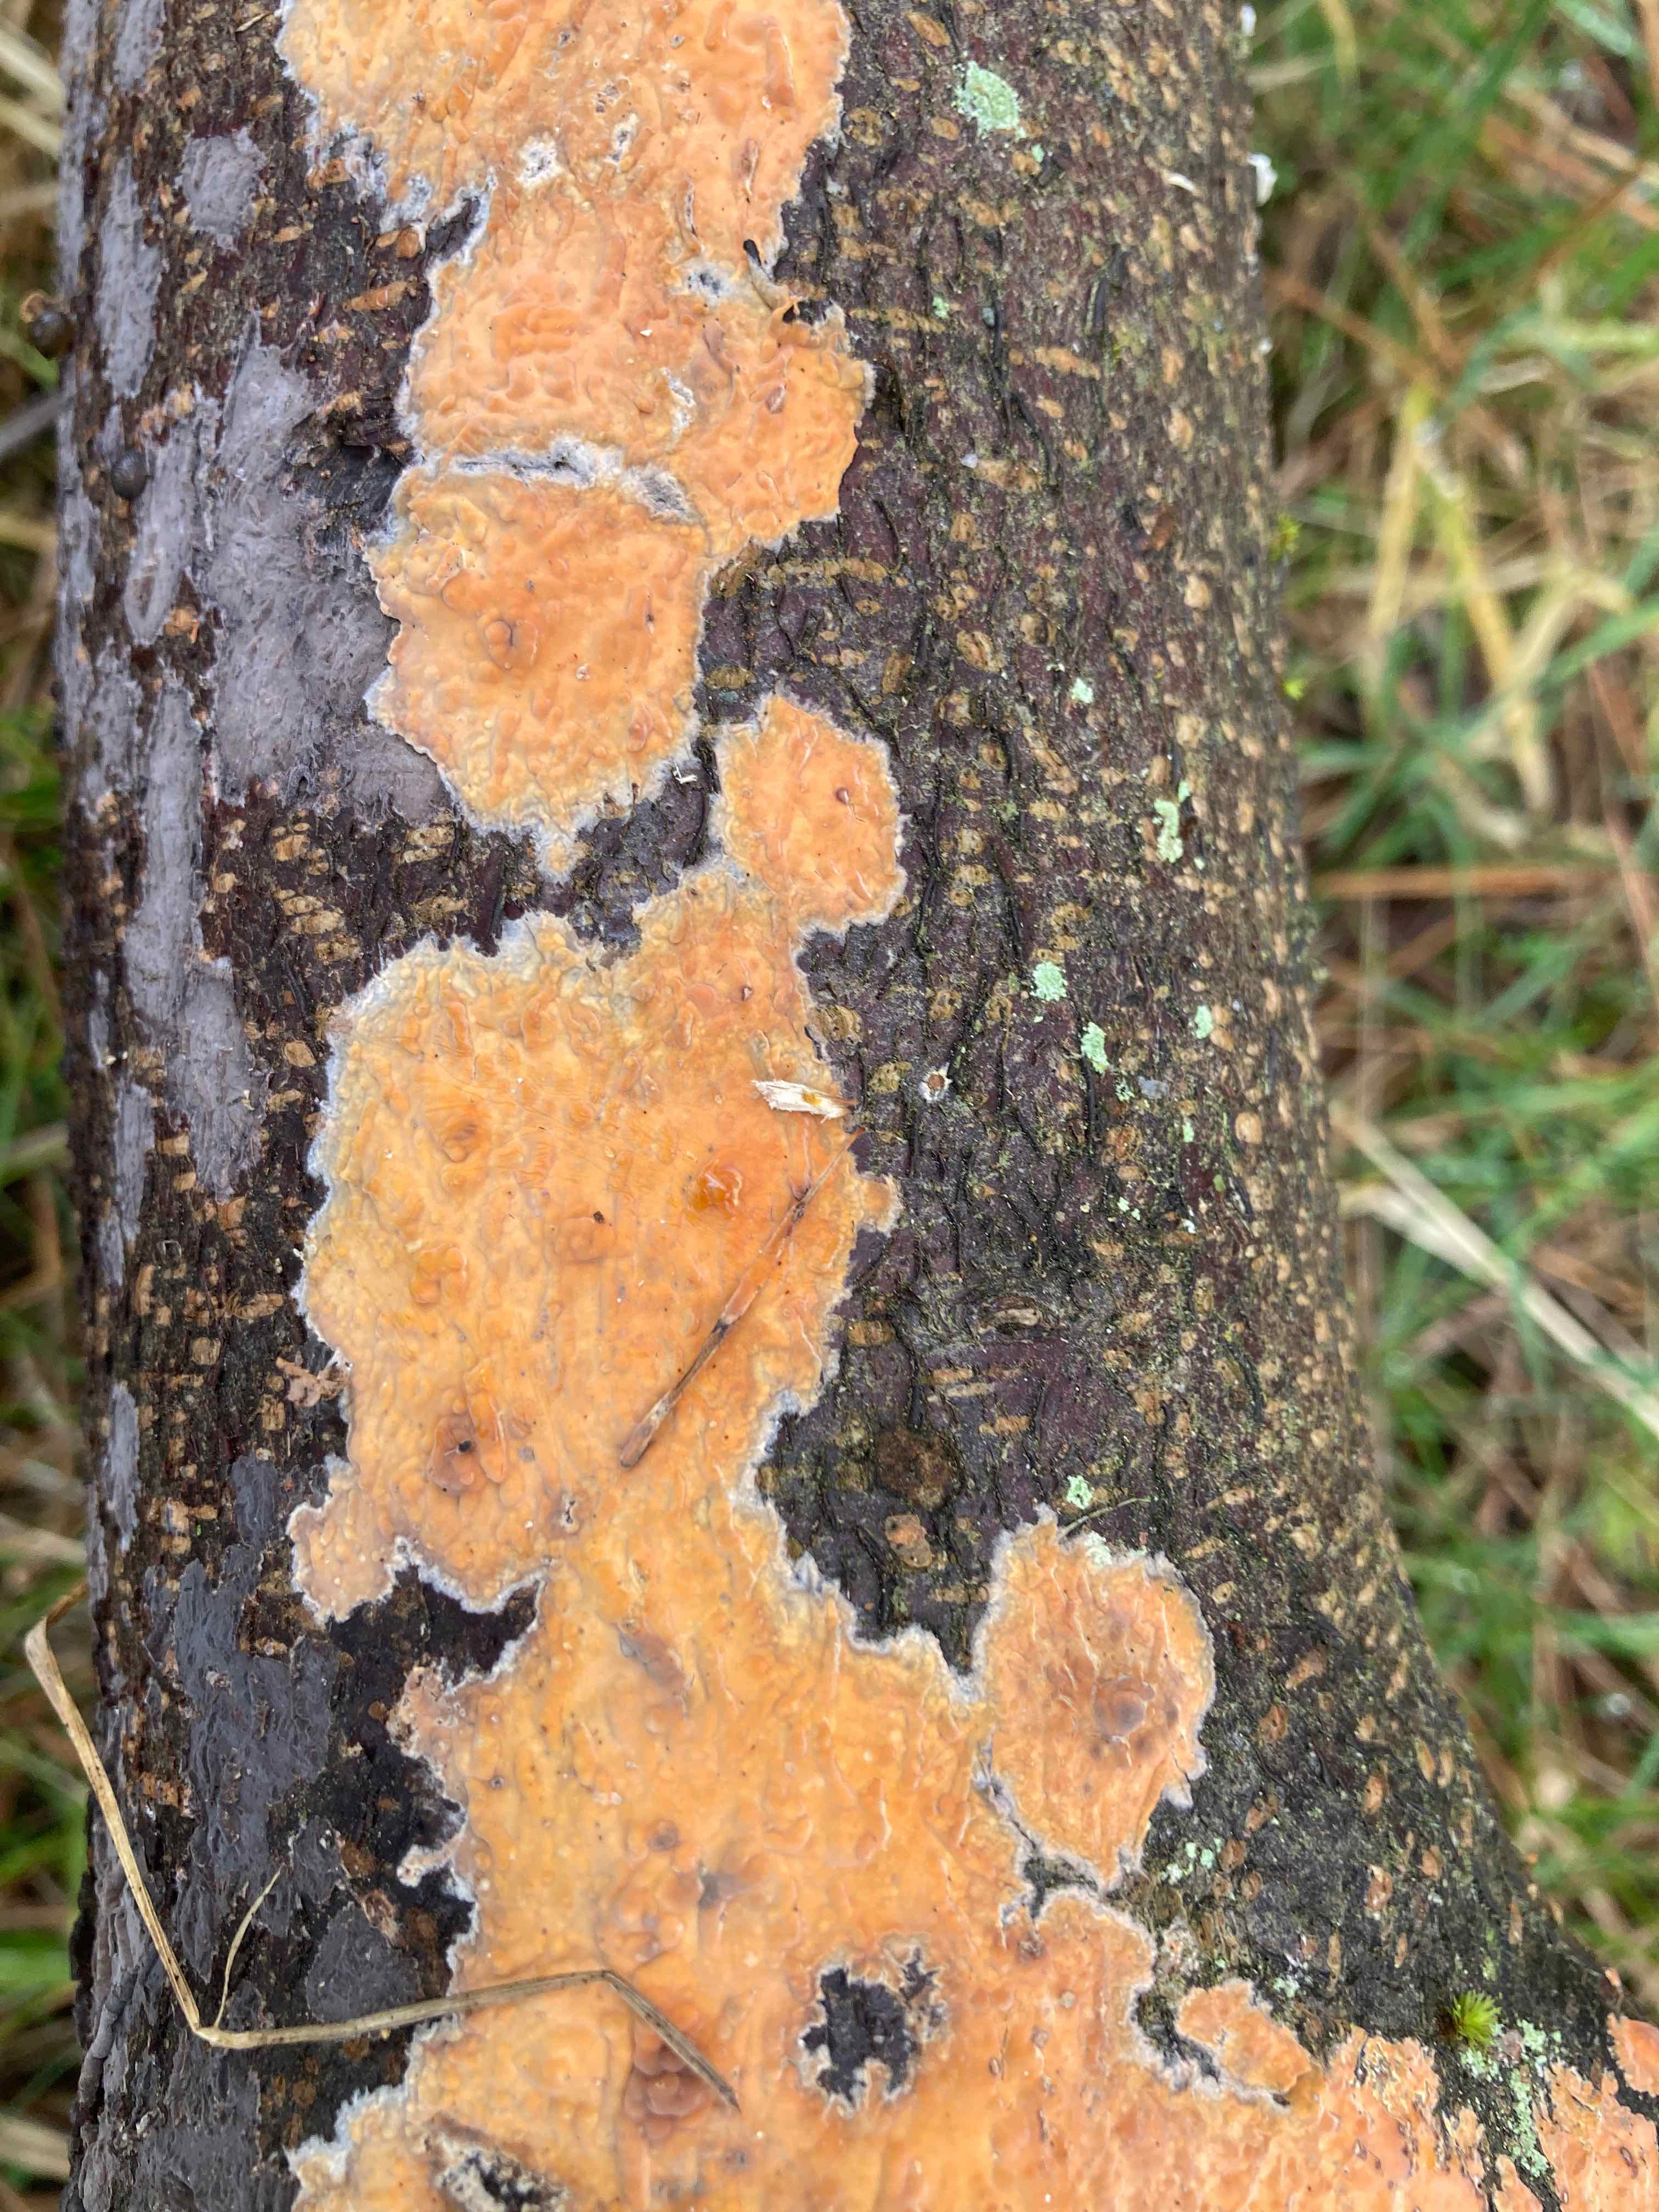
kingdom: Fungi
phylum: Basidiomycota
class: Agaricomycetes
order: Russulales
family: Peniophoraceae
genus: Peniophora
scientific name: Peniophora incarnata
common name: laksefarvet voksskind
